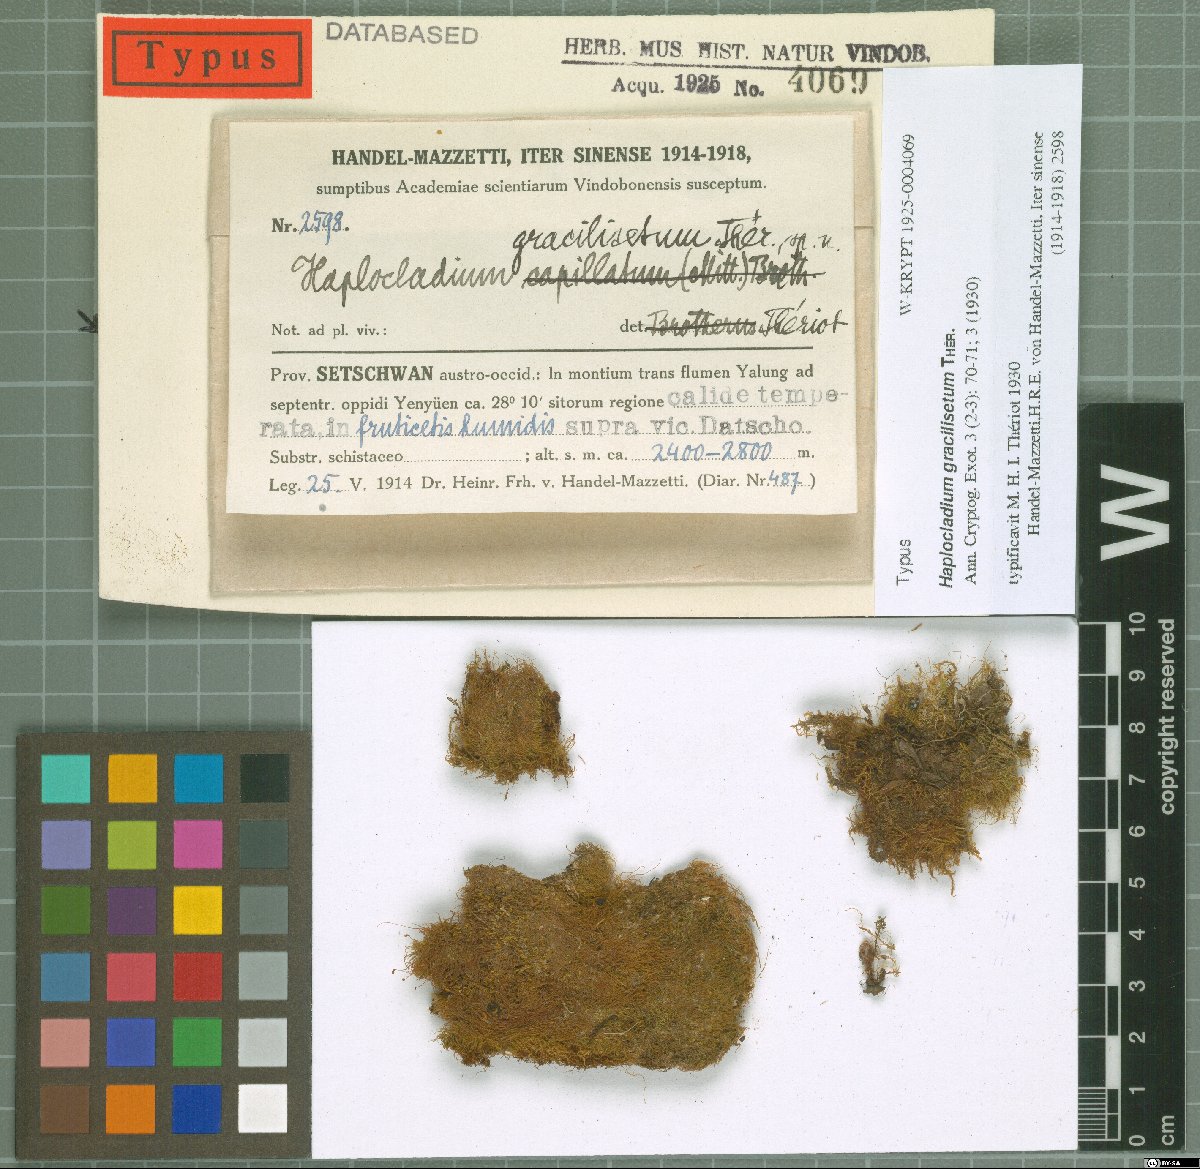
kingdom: Plantae
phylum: Bryophyta
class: Bryopsida
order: Hypnales
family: Leskeaceae
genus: Haplocladium
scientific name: Haplocladium gracilisetum
